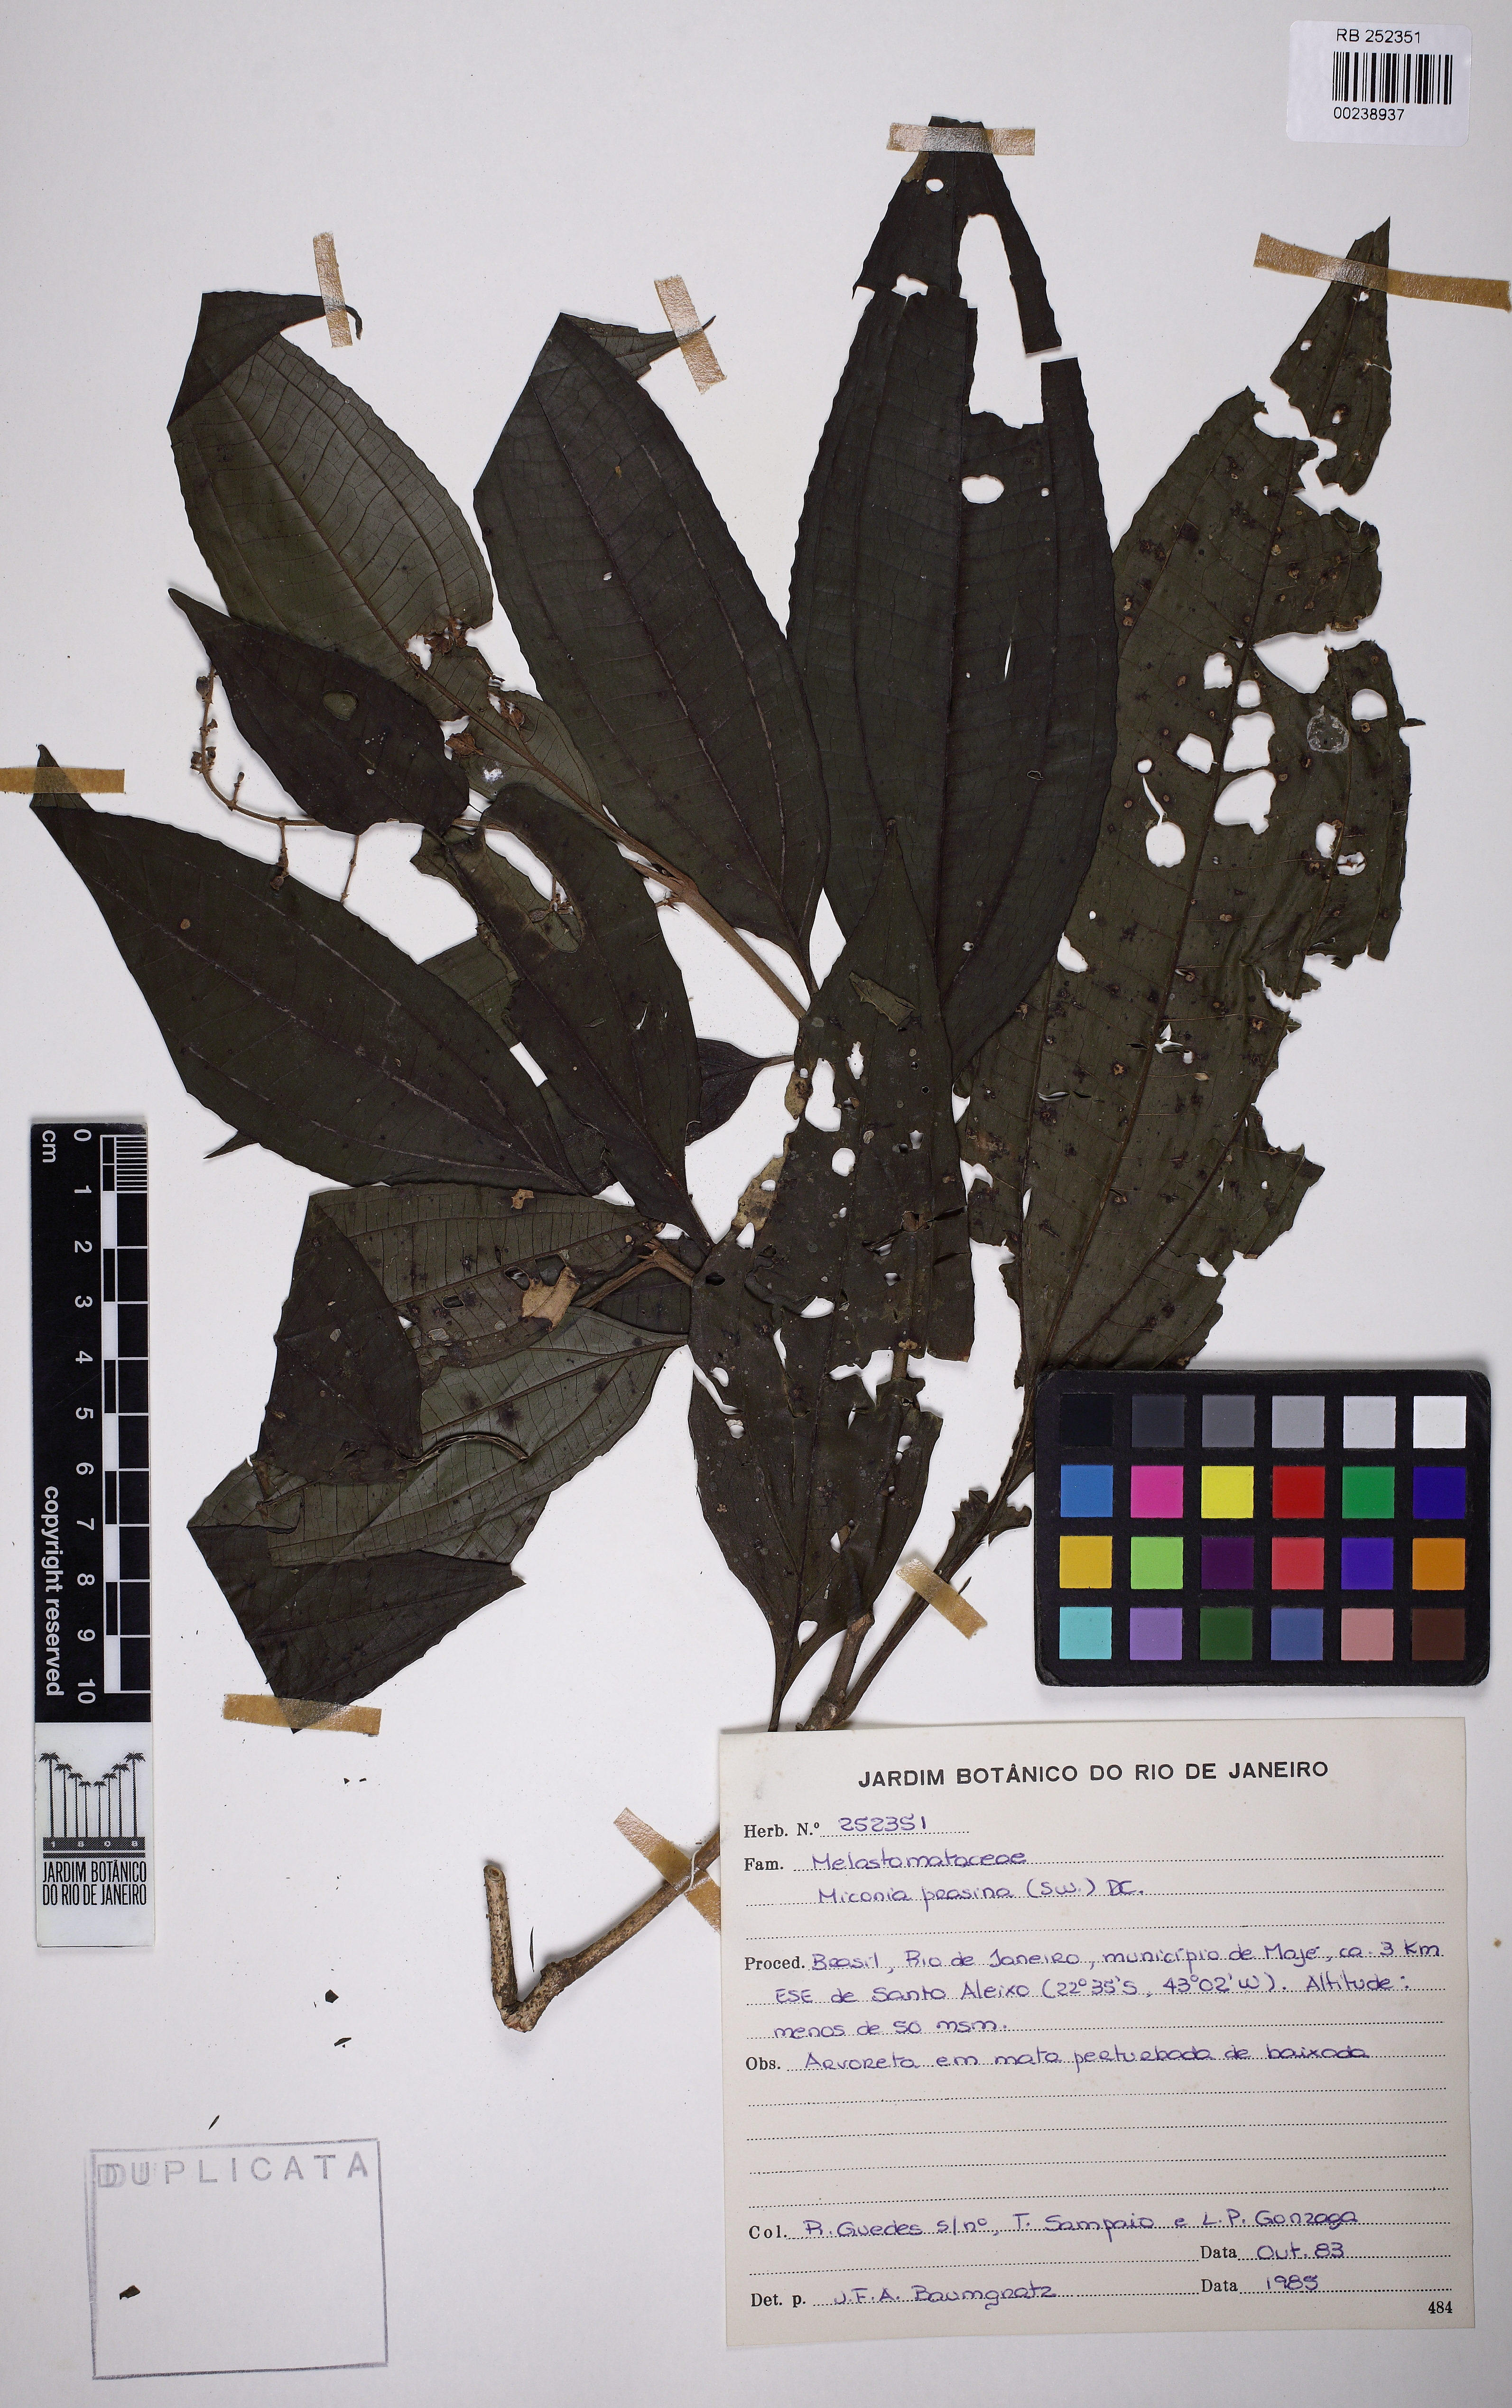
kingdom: Plantae
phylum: Tracheophyta
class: Magnoliopsida
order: Myrtales
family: Melastomataceae
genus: Miconia
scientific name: Miconia prasina
